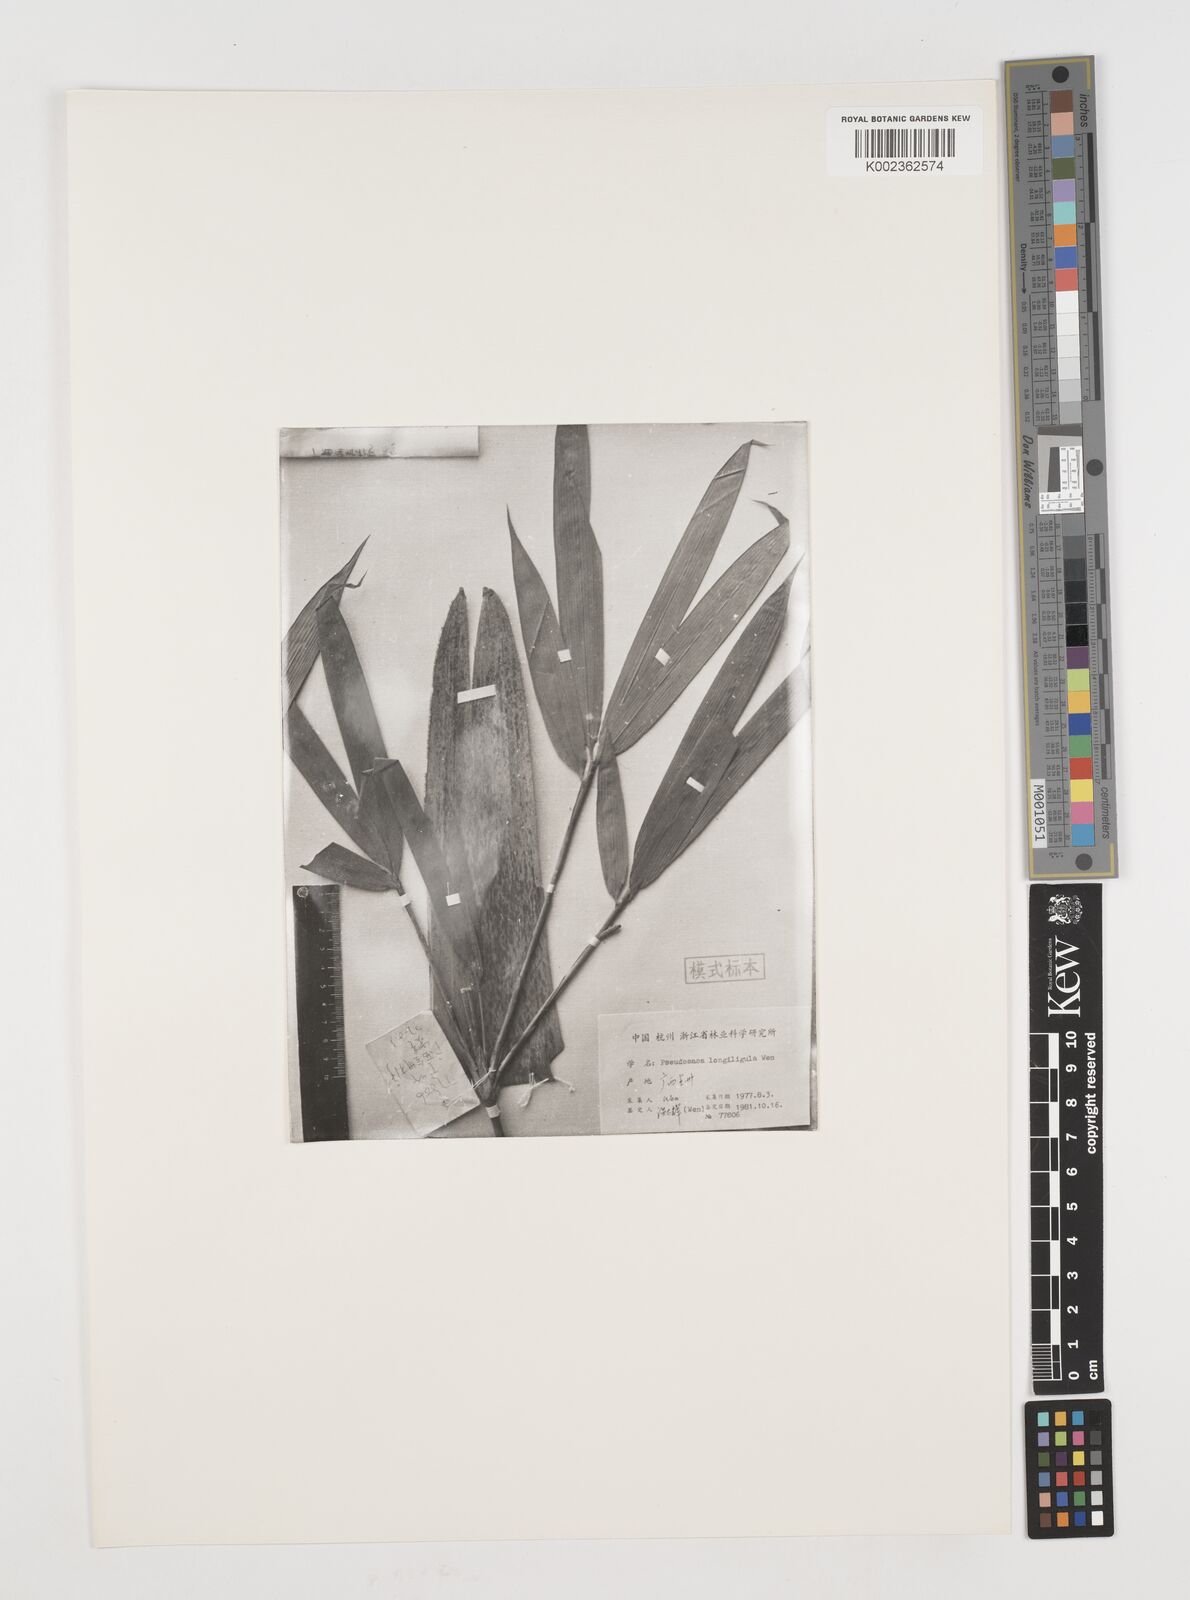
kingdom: Plantae
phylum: Tracheophyta
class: Liliopsida
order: Poales
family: Poaceae
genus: Pseudosasa
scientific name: Pseudosasa longiligula
